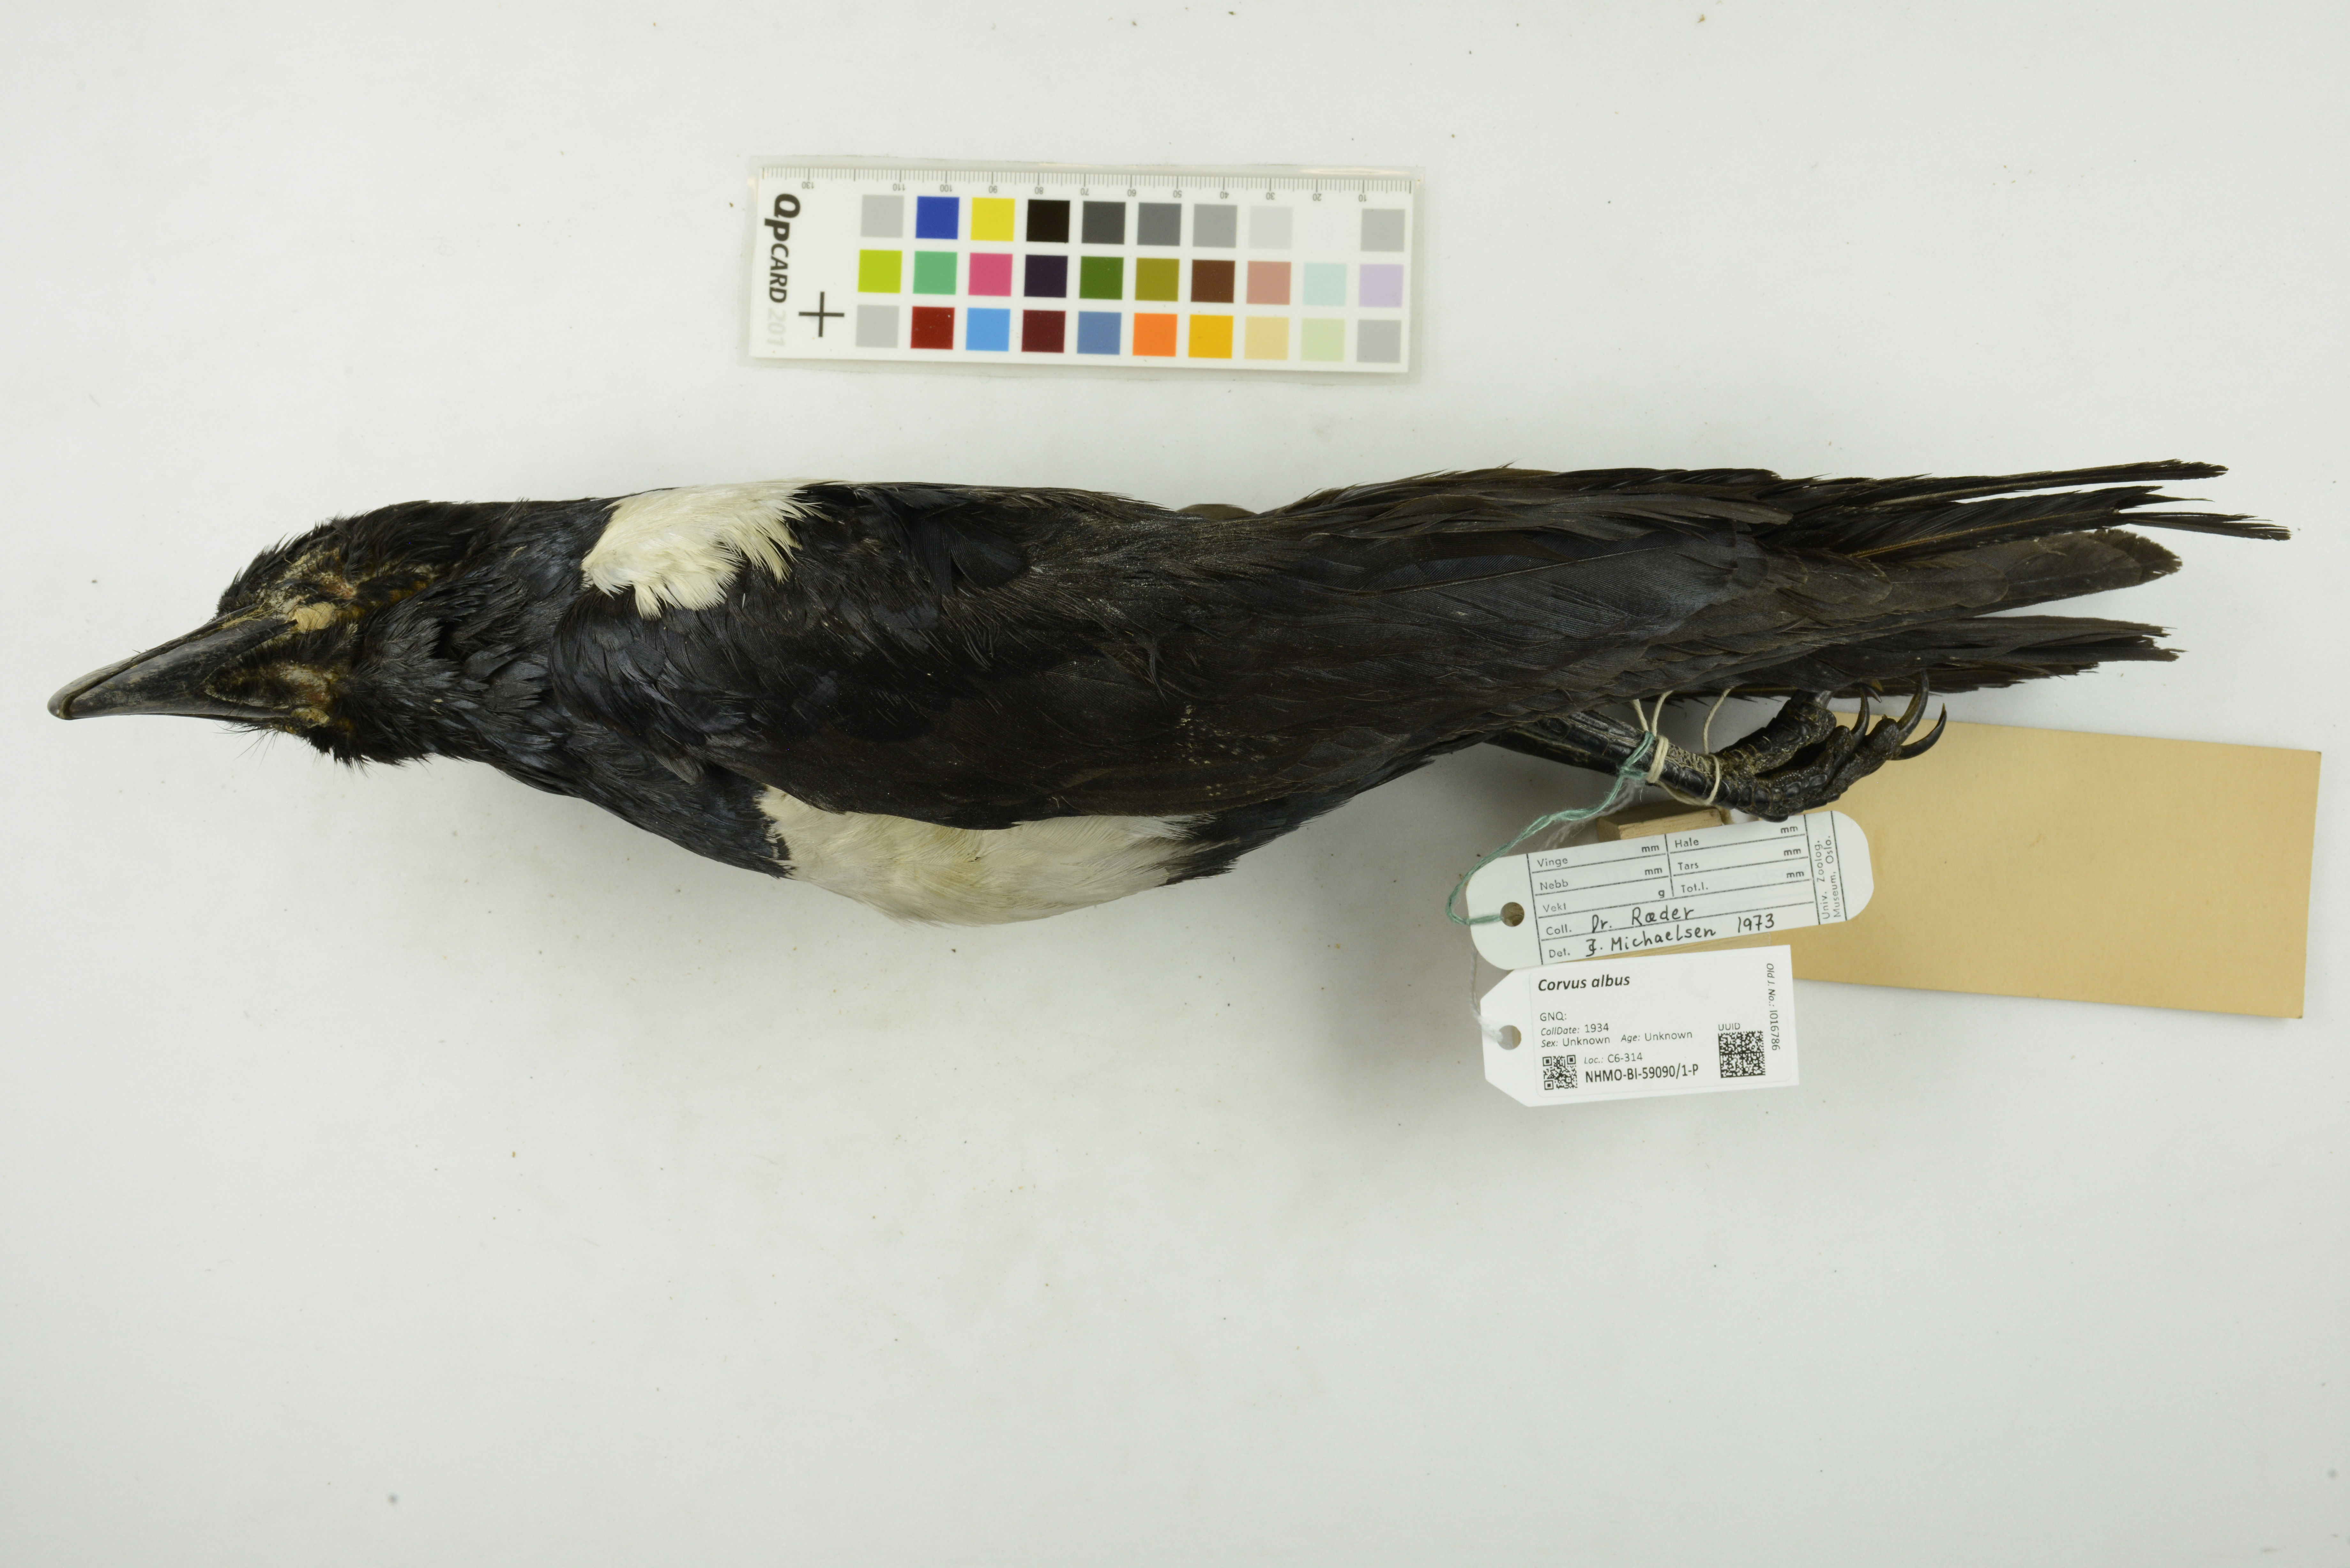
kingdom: Animalia
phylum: Chordata
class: Aves
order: Passeriformes
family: Corvidae
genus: Corvus
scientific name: Corvus albus
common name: Pied crow
